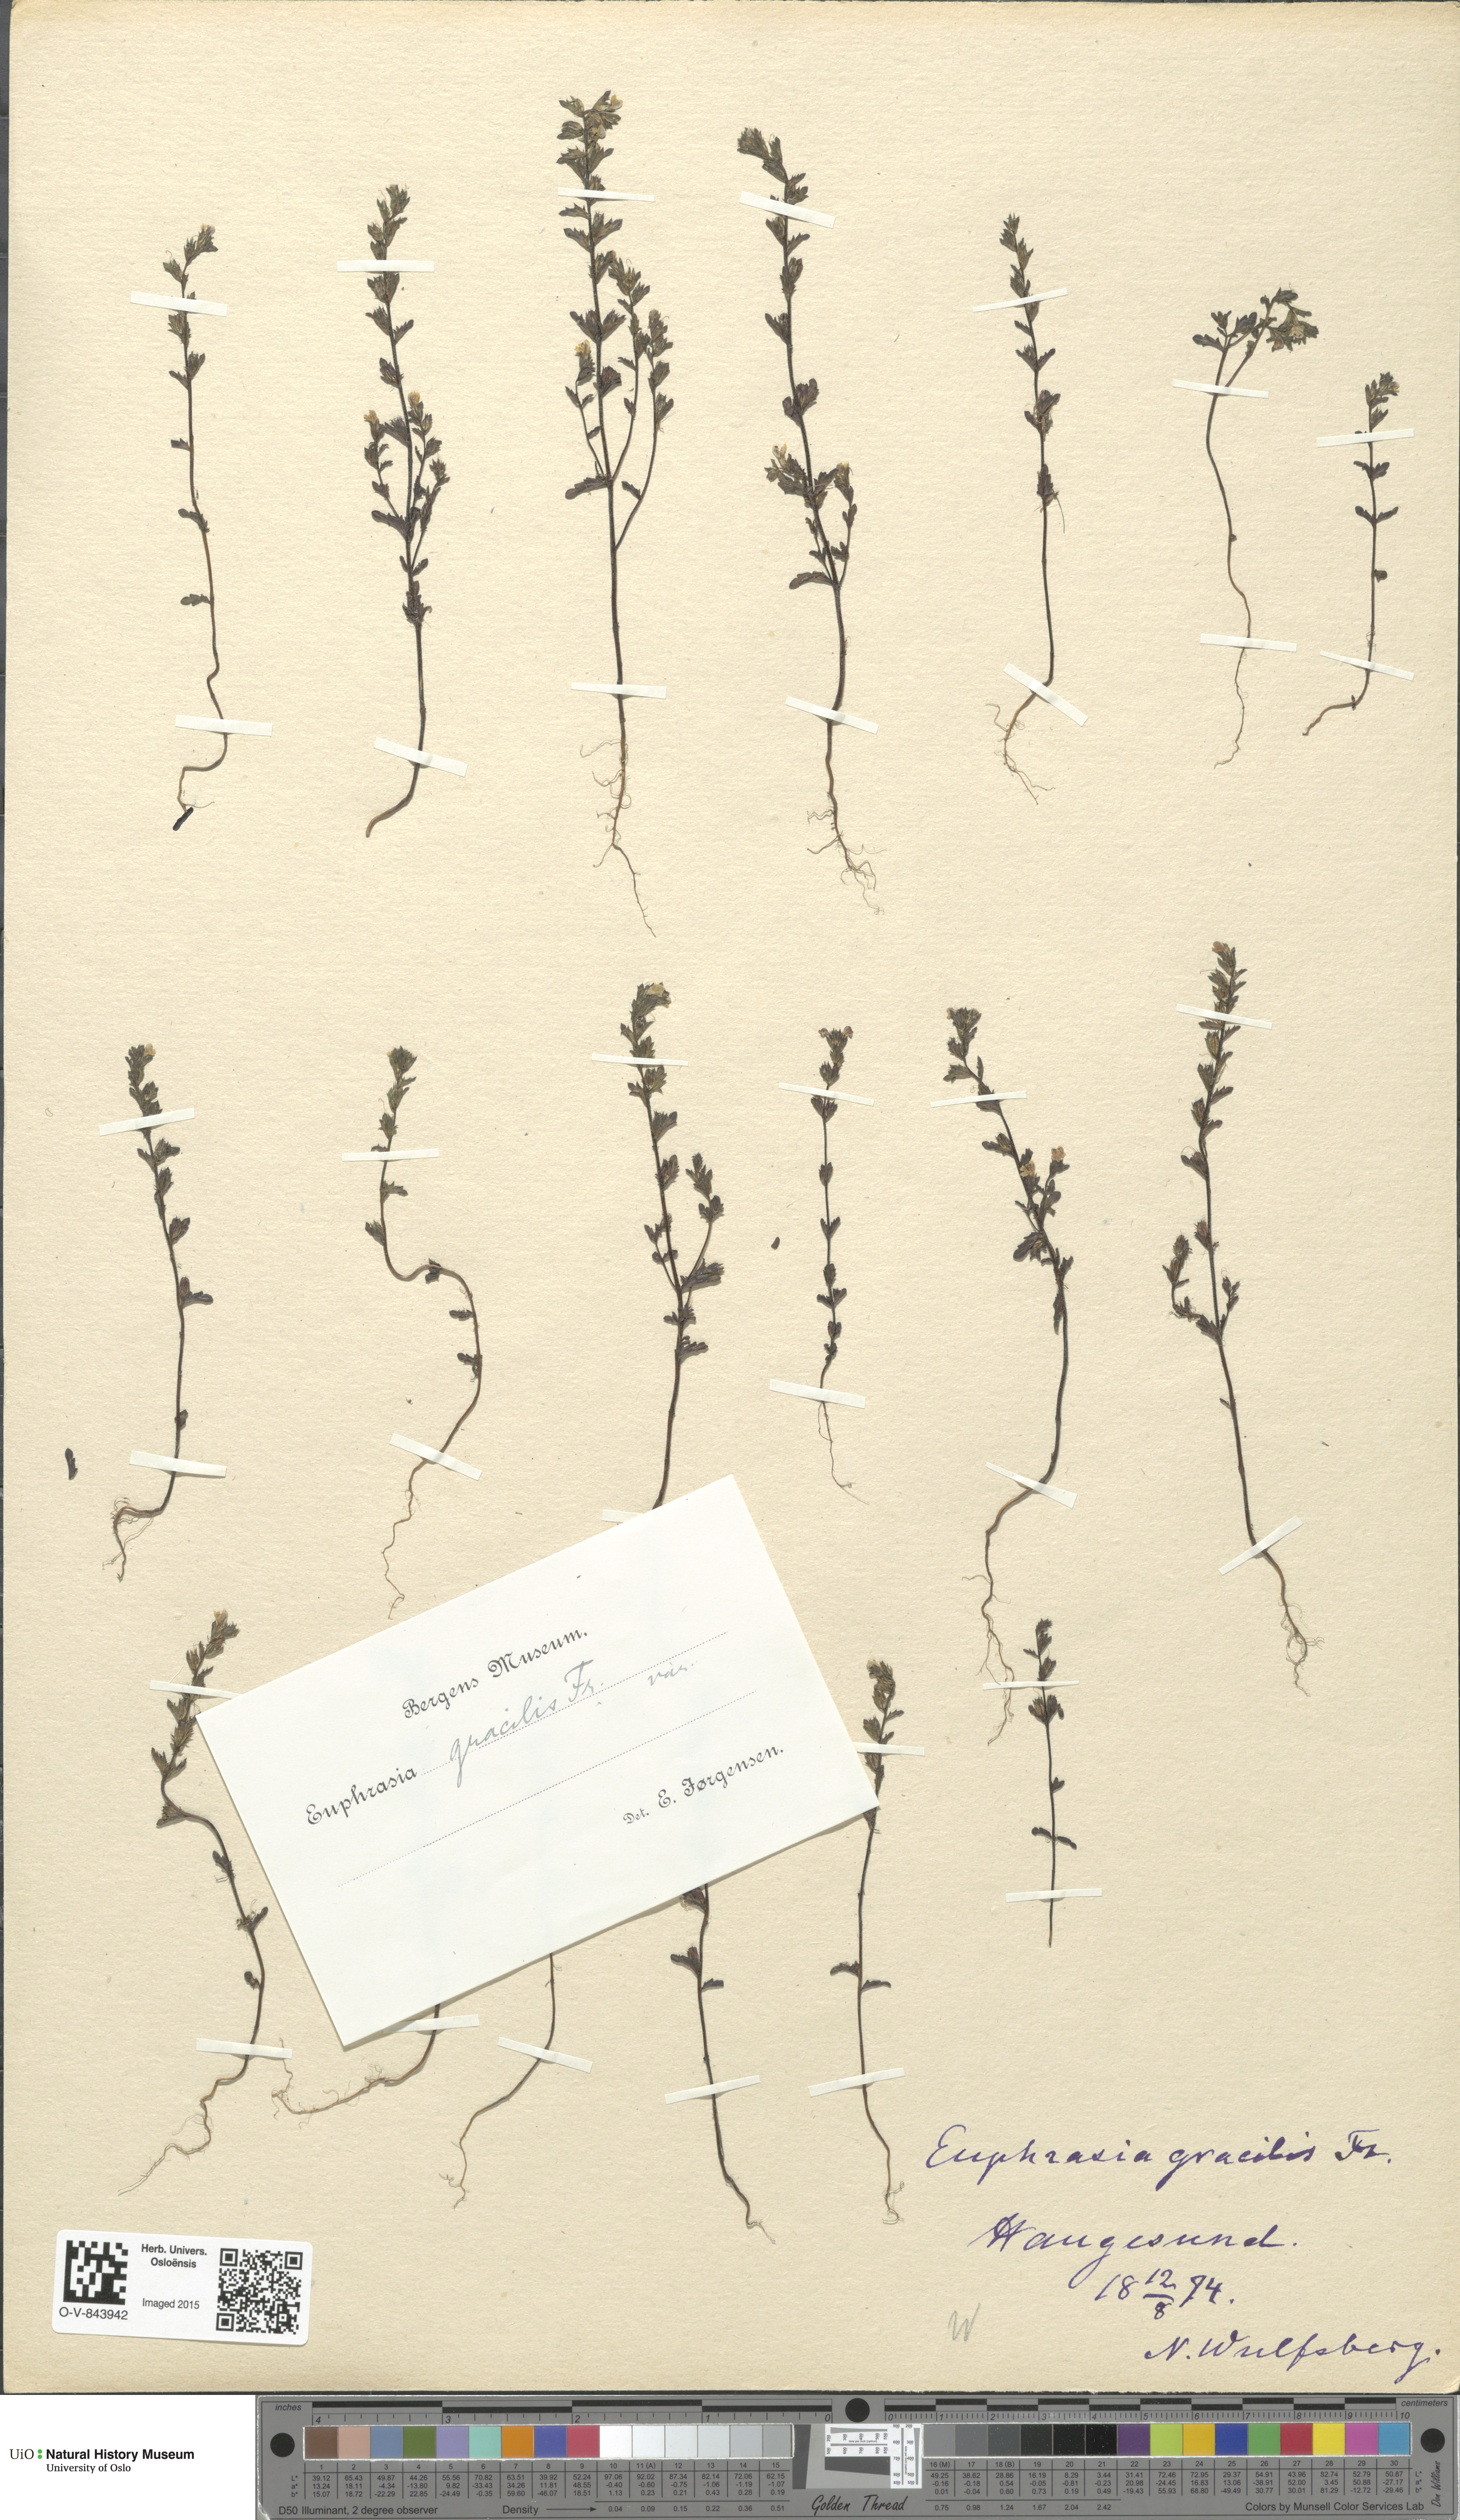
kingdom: Plantae
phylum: Tracheophyta
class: Magnoliopsida
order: Lamiales
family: Orobanchaceae
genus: Euphrasia
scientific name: Euphrasia micrantha
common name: Northern eyebright
